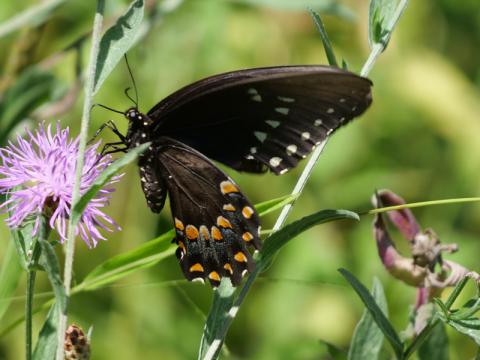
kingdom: Animalia
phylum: Arthropoda
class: Insecta
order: Lepidoptera
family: Papilionidae
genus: Pterourus
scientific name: Pterourus troilus
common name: Spicebush Swallowtail
